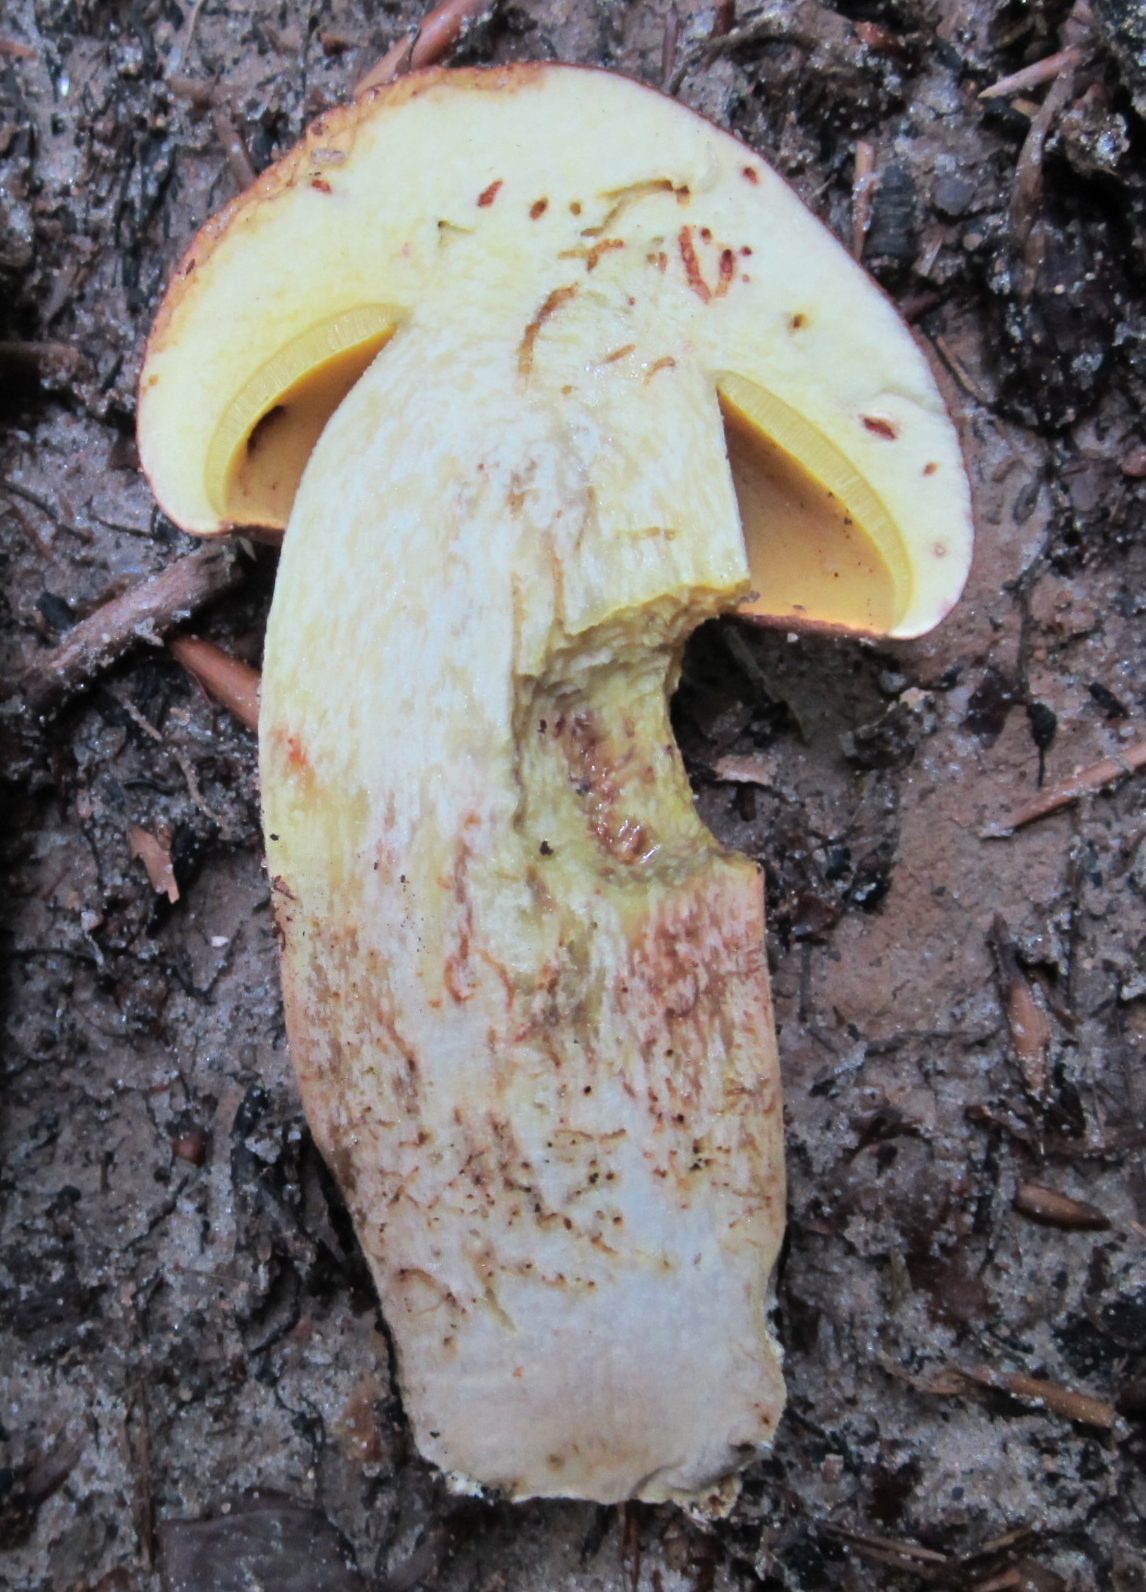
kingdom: Fungi
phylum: Basidiomycota
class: Agaricomycetes
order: Boletales
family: Boletaceae
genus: Butyriboletus
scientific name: Butyriboletus appendiculatus
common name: tenstokket rørhat
